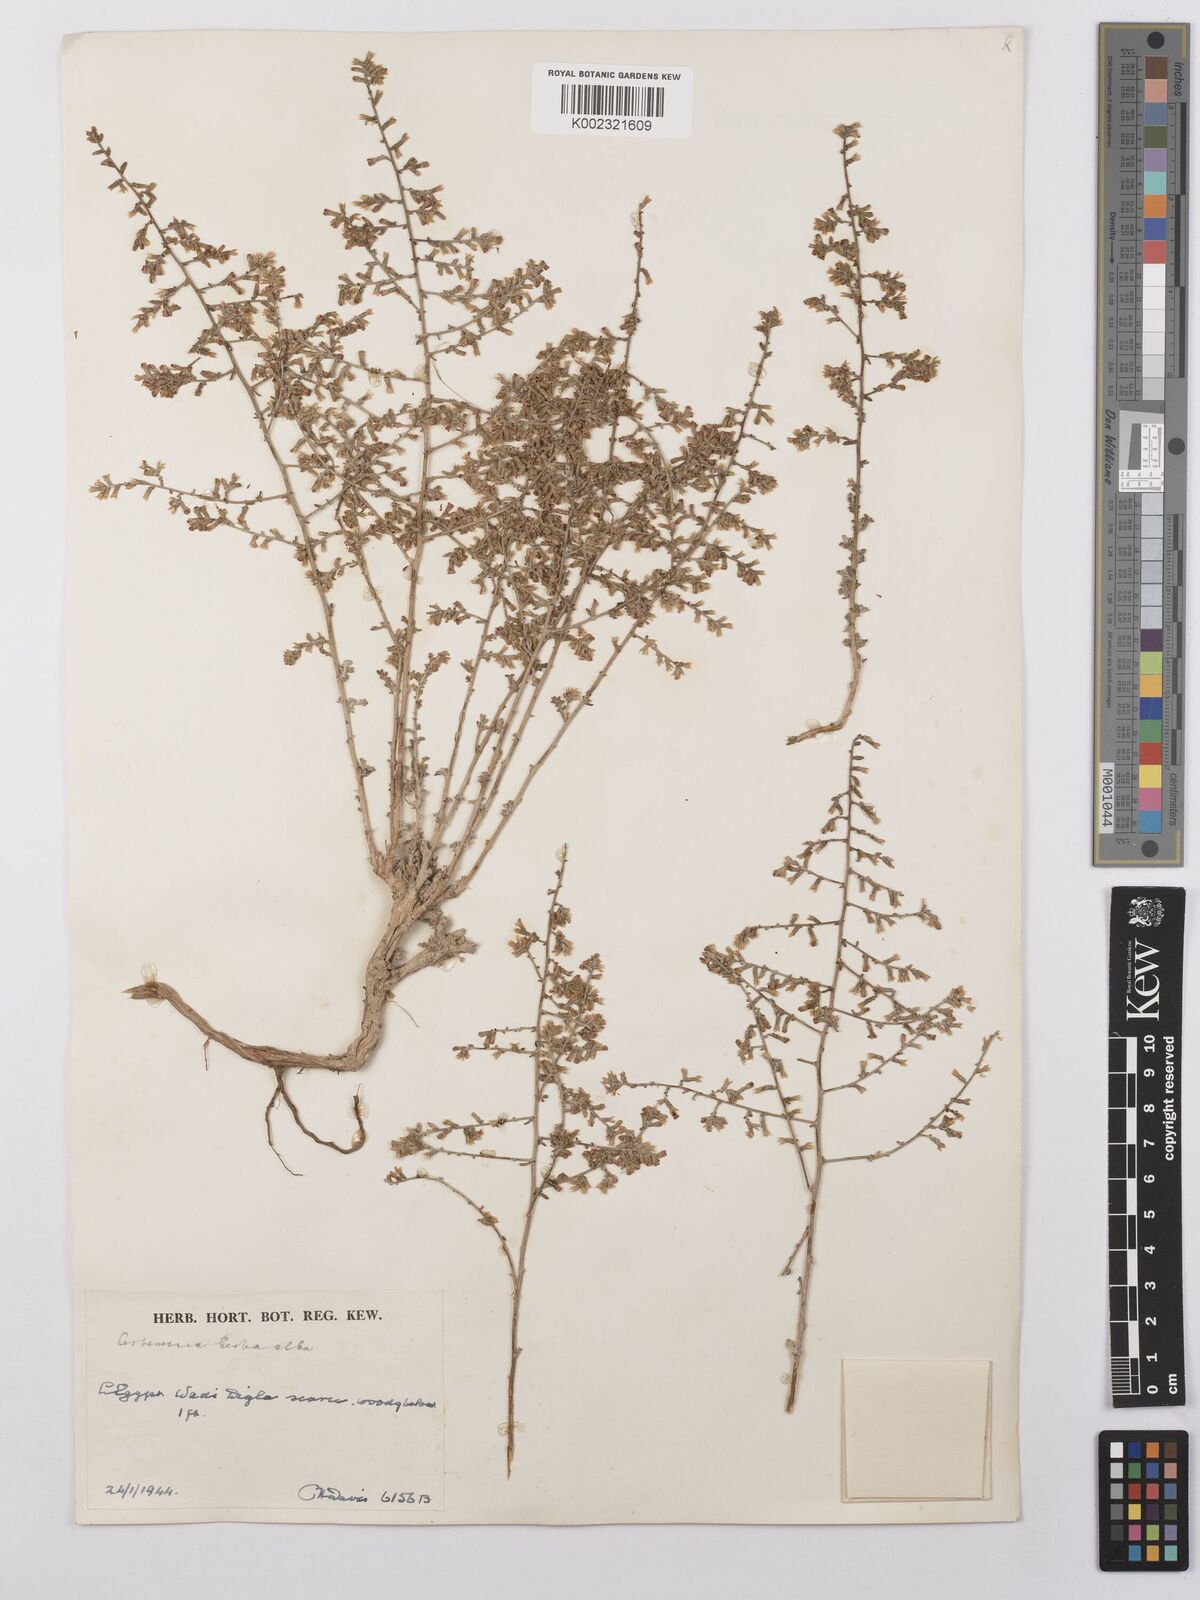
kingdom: Plantae
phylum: Tracheophyta
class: Magnoliopsida
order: Asterales
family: Asteraceae
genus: Artemisia
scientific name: Artemisia herba-alba
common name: White wormwood
